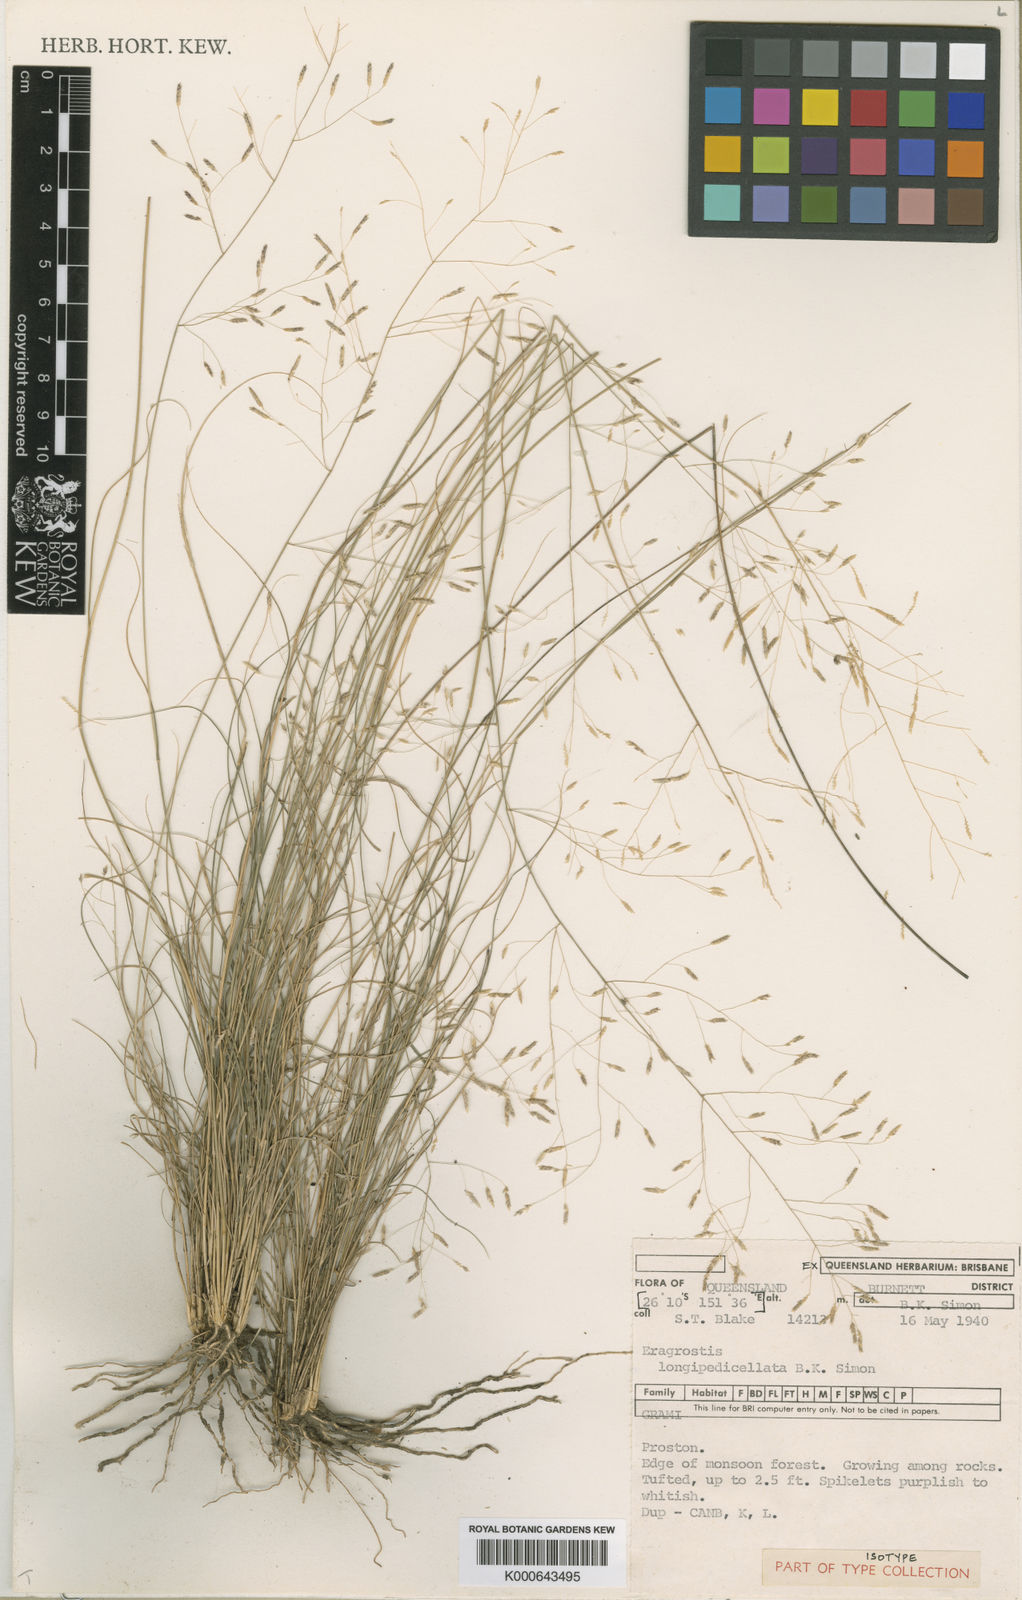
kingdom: Plantae
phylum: Tracheophyta
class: Liliopsida
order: Poales
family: Poaceae
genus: Eragrostis
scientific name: Eragrostis longipedicellata
